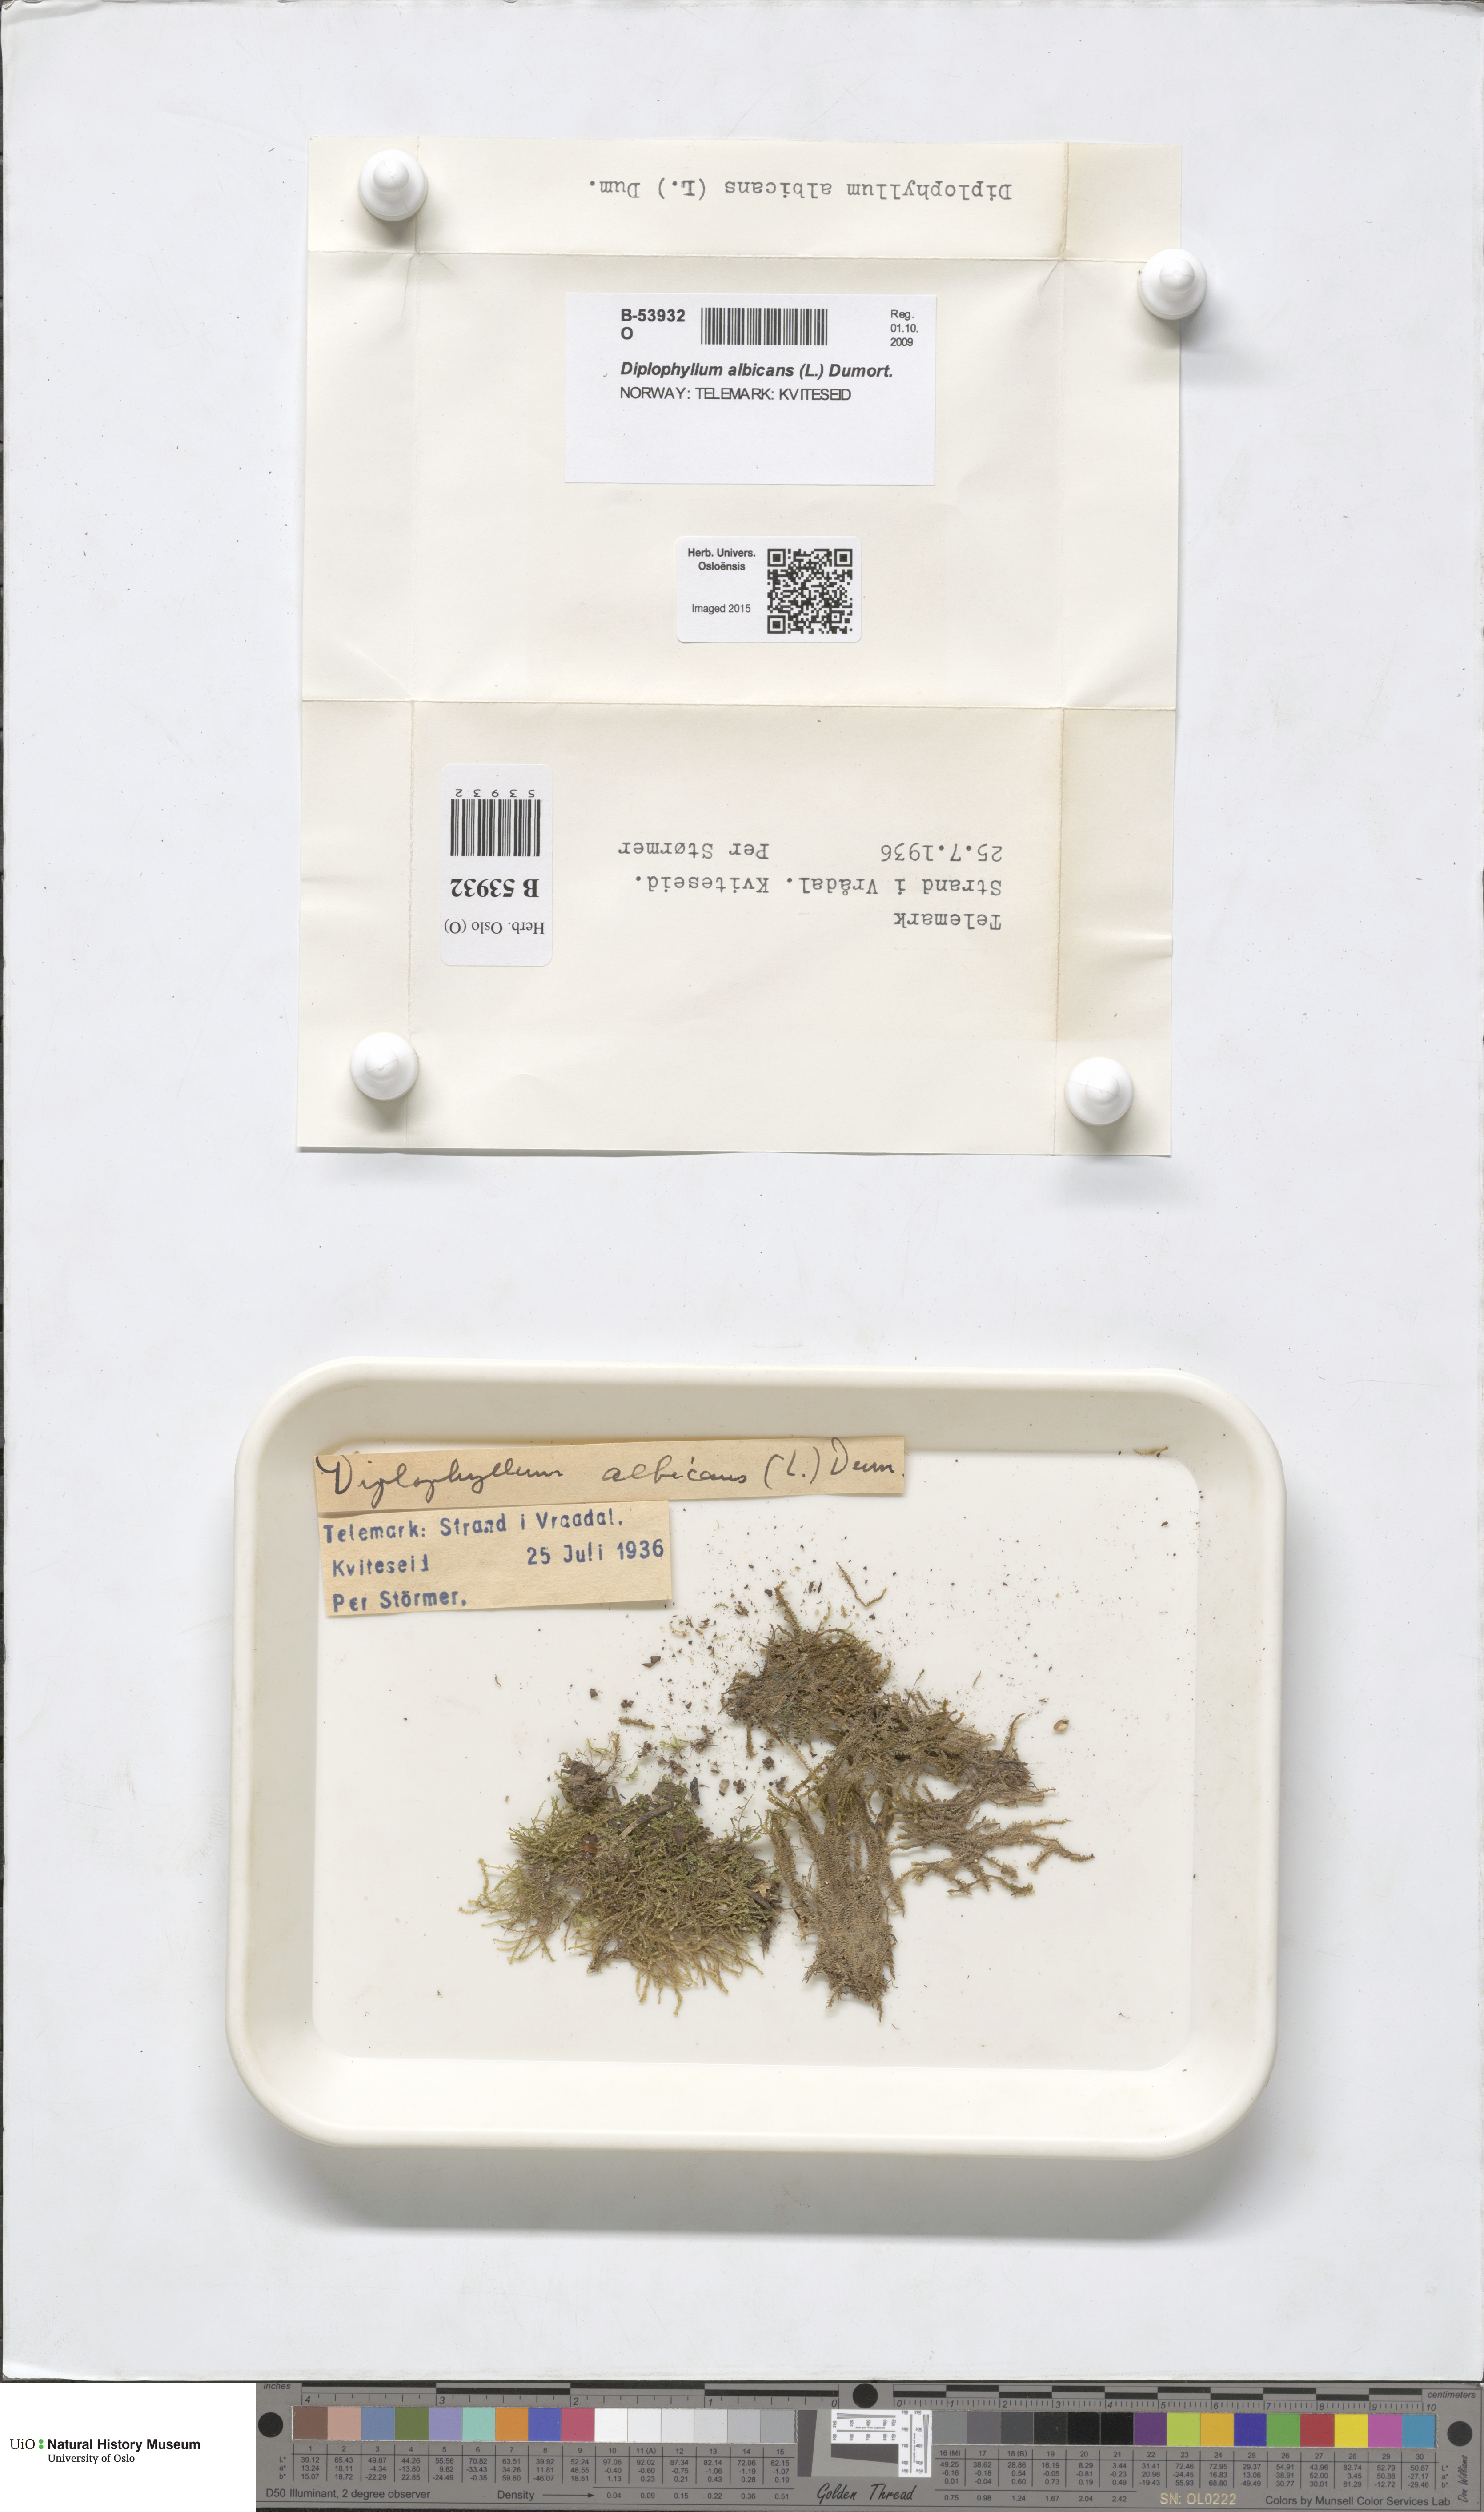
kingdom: Plantae
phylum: Marchantiophyta
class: Jungermanniopsida
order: Jungermanniales
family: Scapaniaceae
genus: Diplophyllum
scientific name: Diplophyllum albicans
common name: White earwort
